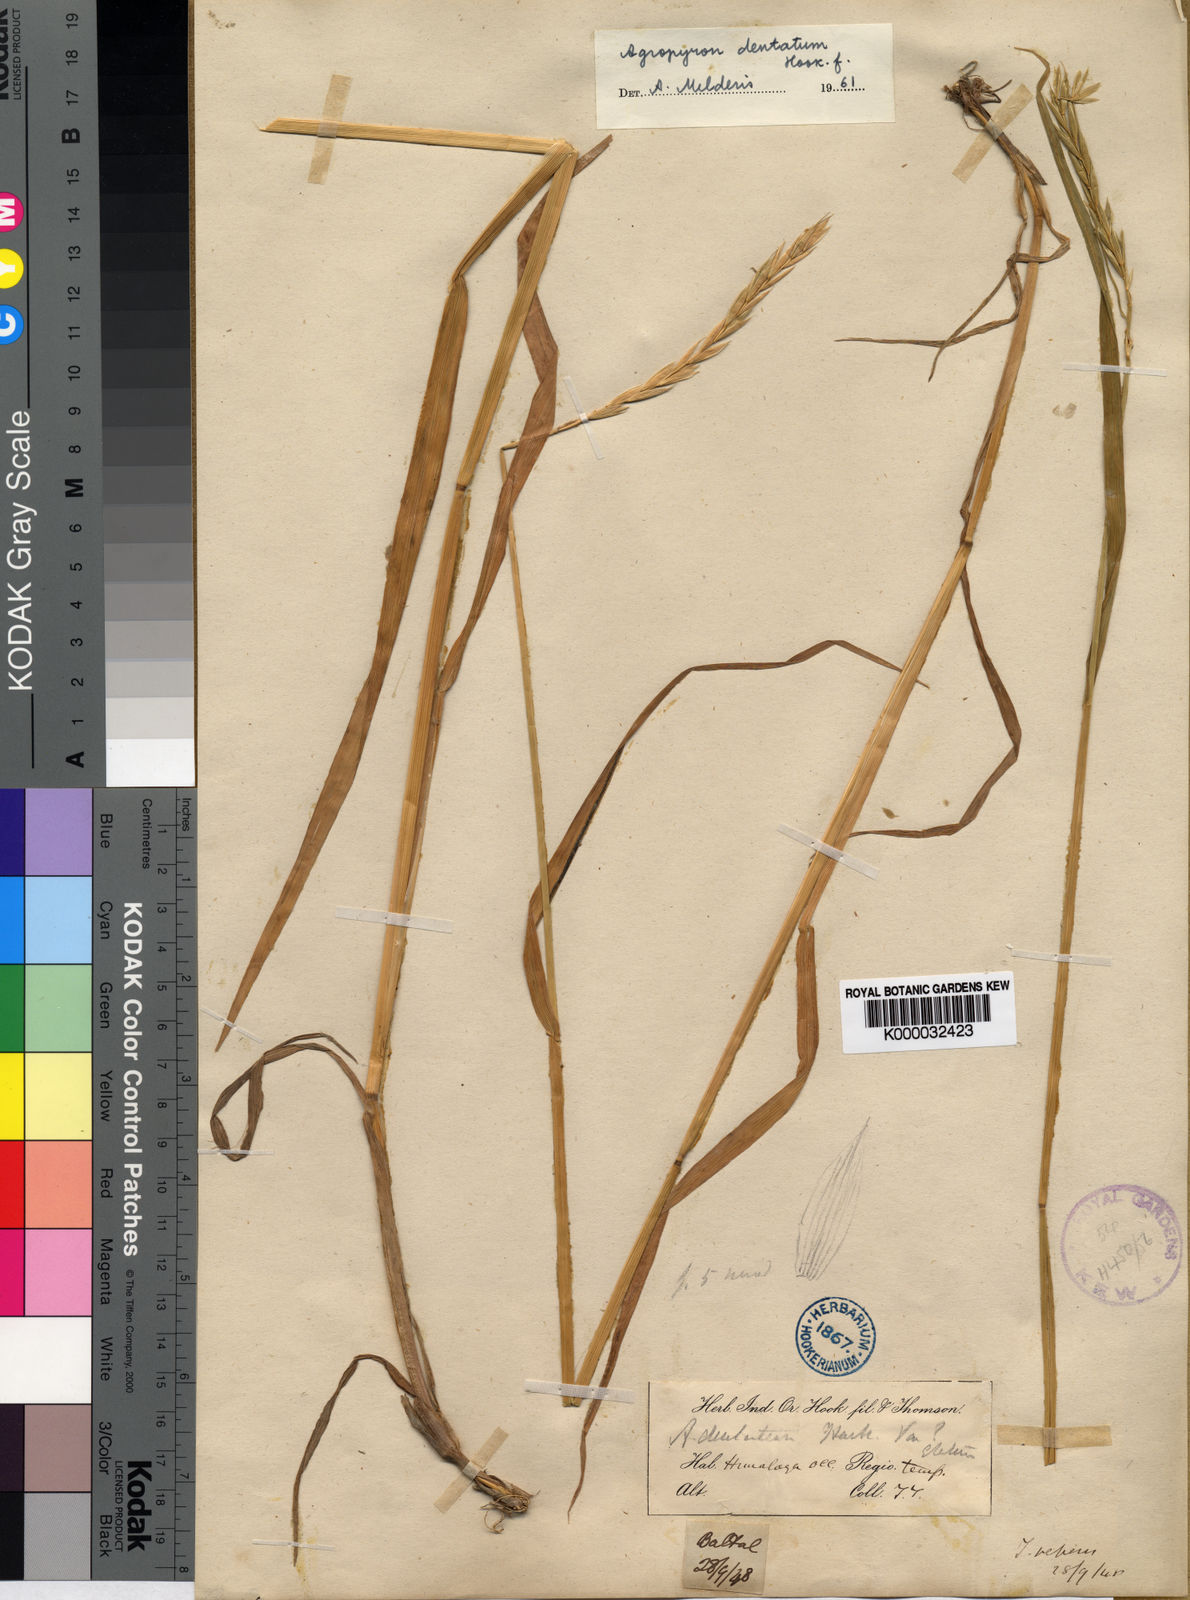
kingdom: Plantae
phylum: Tracheophyta
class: Liliopsida
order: Poales
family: Poaceae
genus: Elymus
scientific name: Elymus
